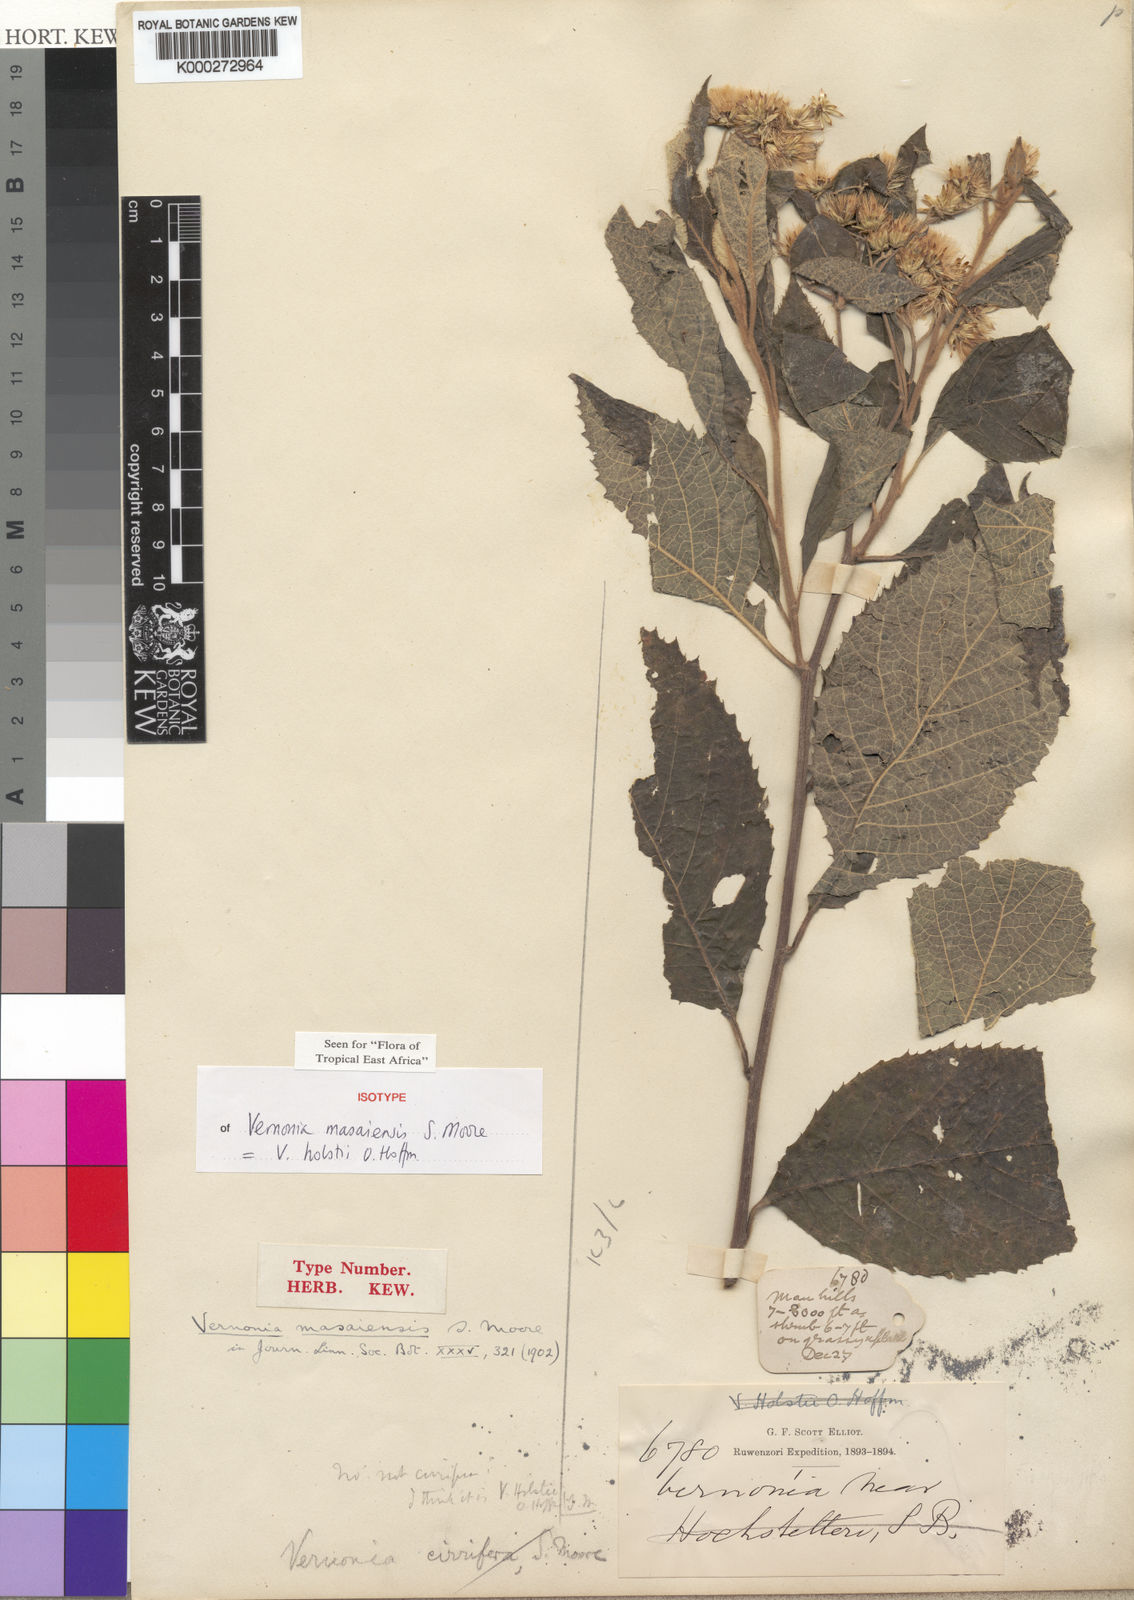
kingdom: Plantae
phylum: Tracheophyta
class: Magnoliopsida
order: Asterales
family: Asteraceae
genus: Vernonia
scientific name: Vernonia holstii
